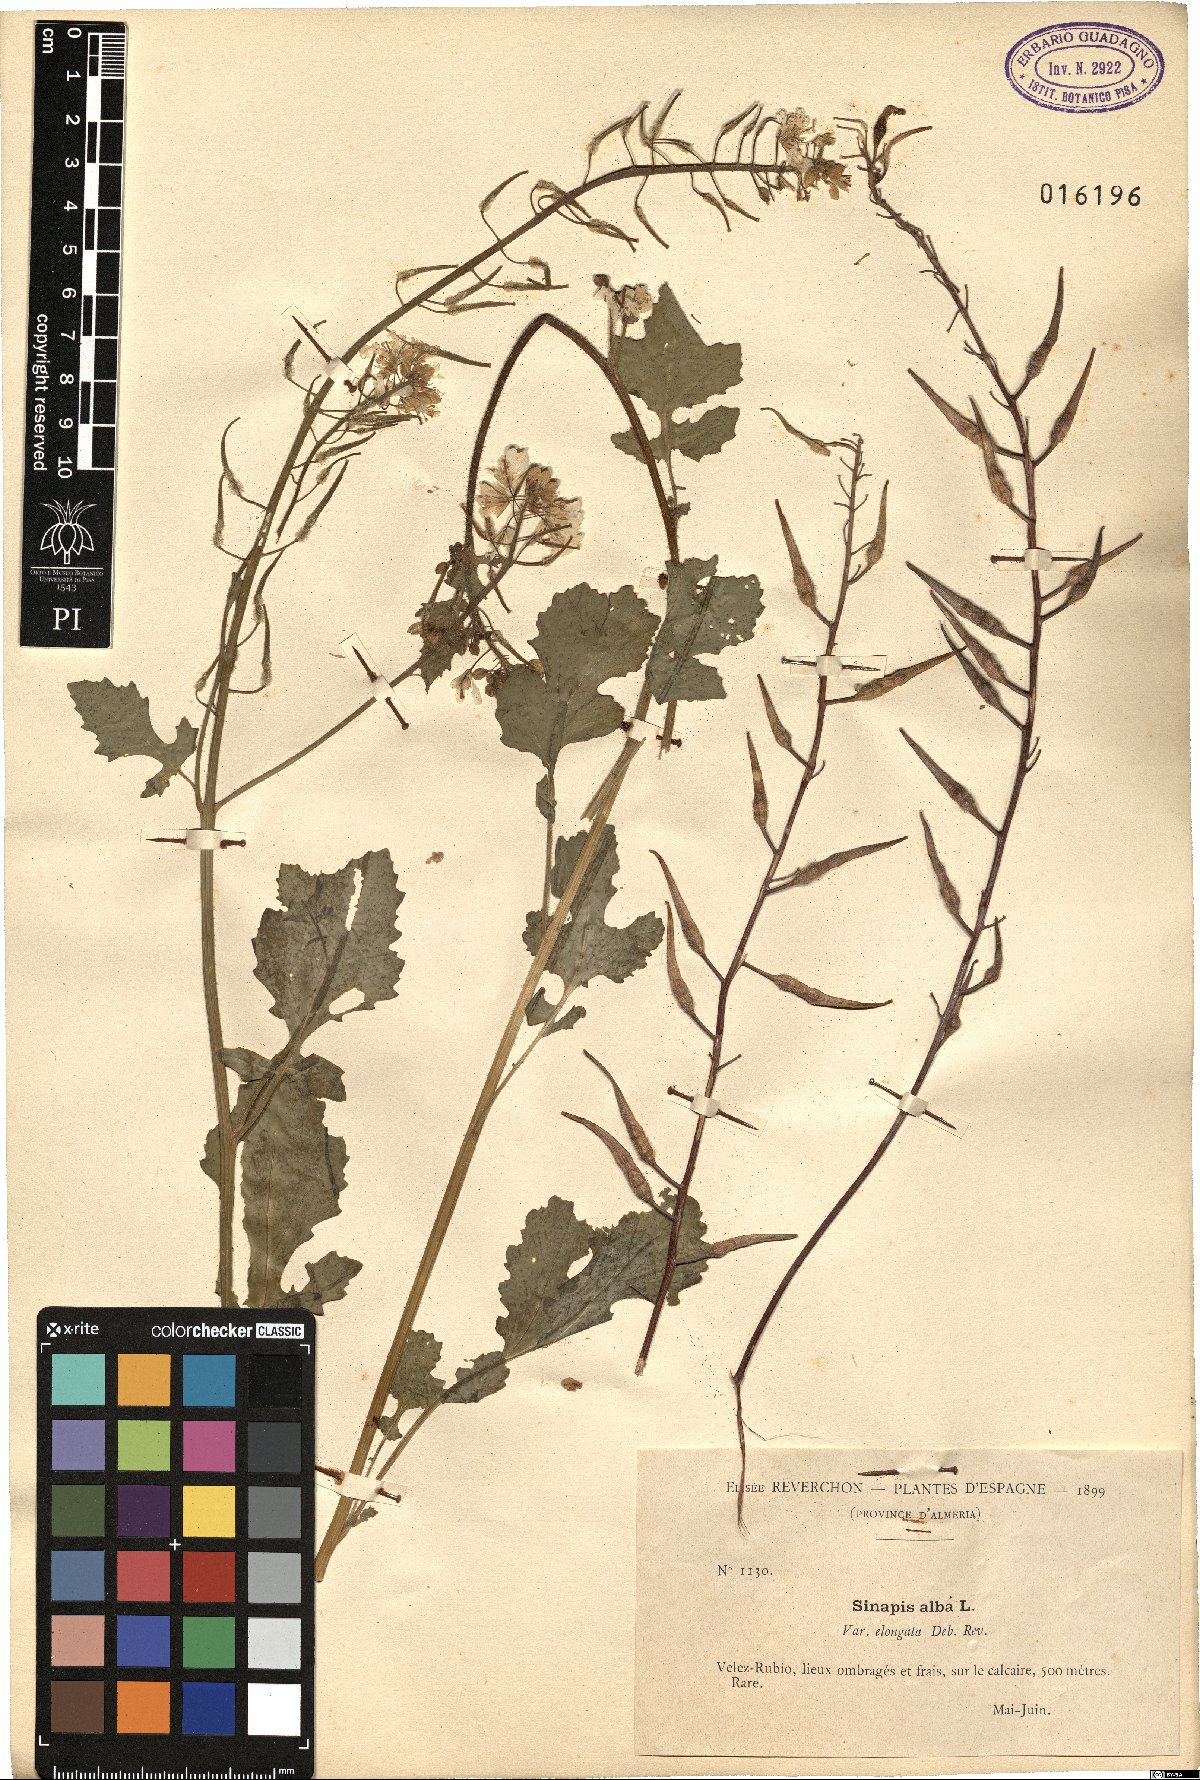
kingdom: Plantae
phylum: Tracheophyta
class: Magnoliopsida
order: Brassicales
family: Brassicaceae
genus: Sinapis
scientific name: Sinapis alba
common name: White mustard
